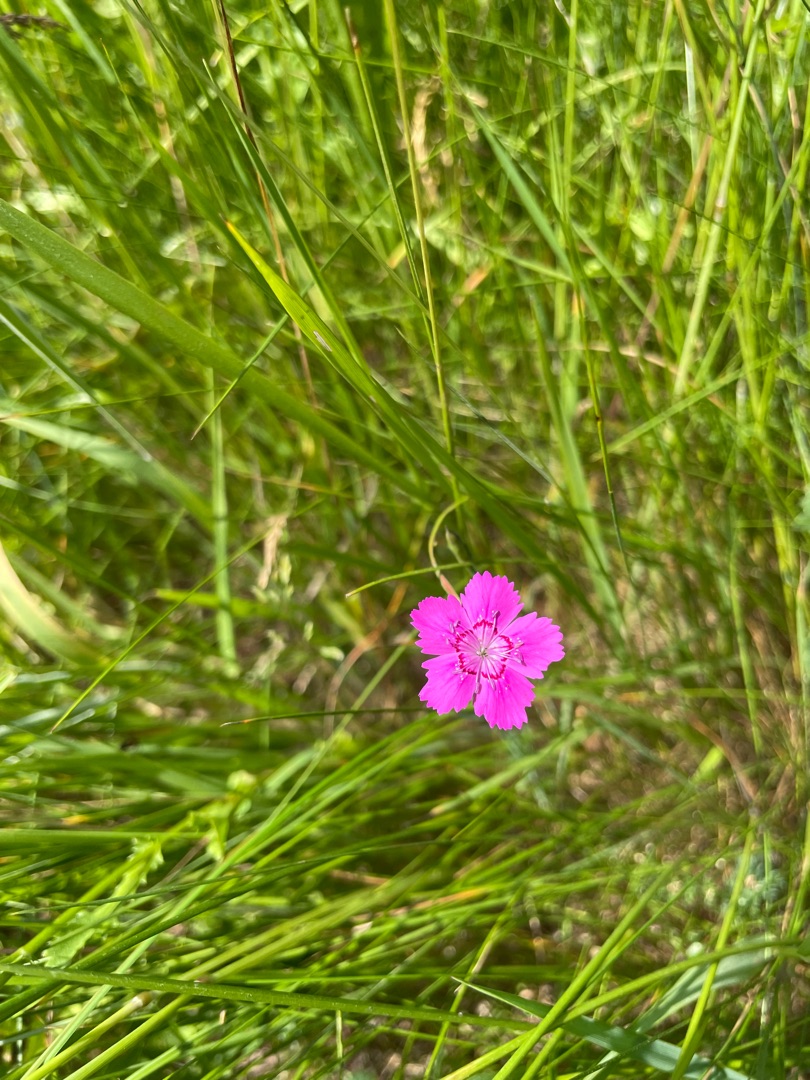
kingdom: Plantae
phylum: Tracheophyta
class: Magnoliopsida
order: Caryophyllales
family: Caryophyllaceae
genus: Dianthus
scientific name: Dianthus deltoides
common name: Bakke-nellike
